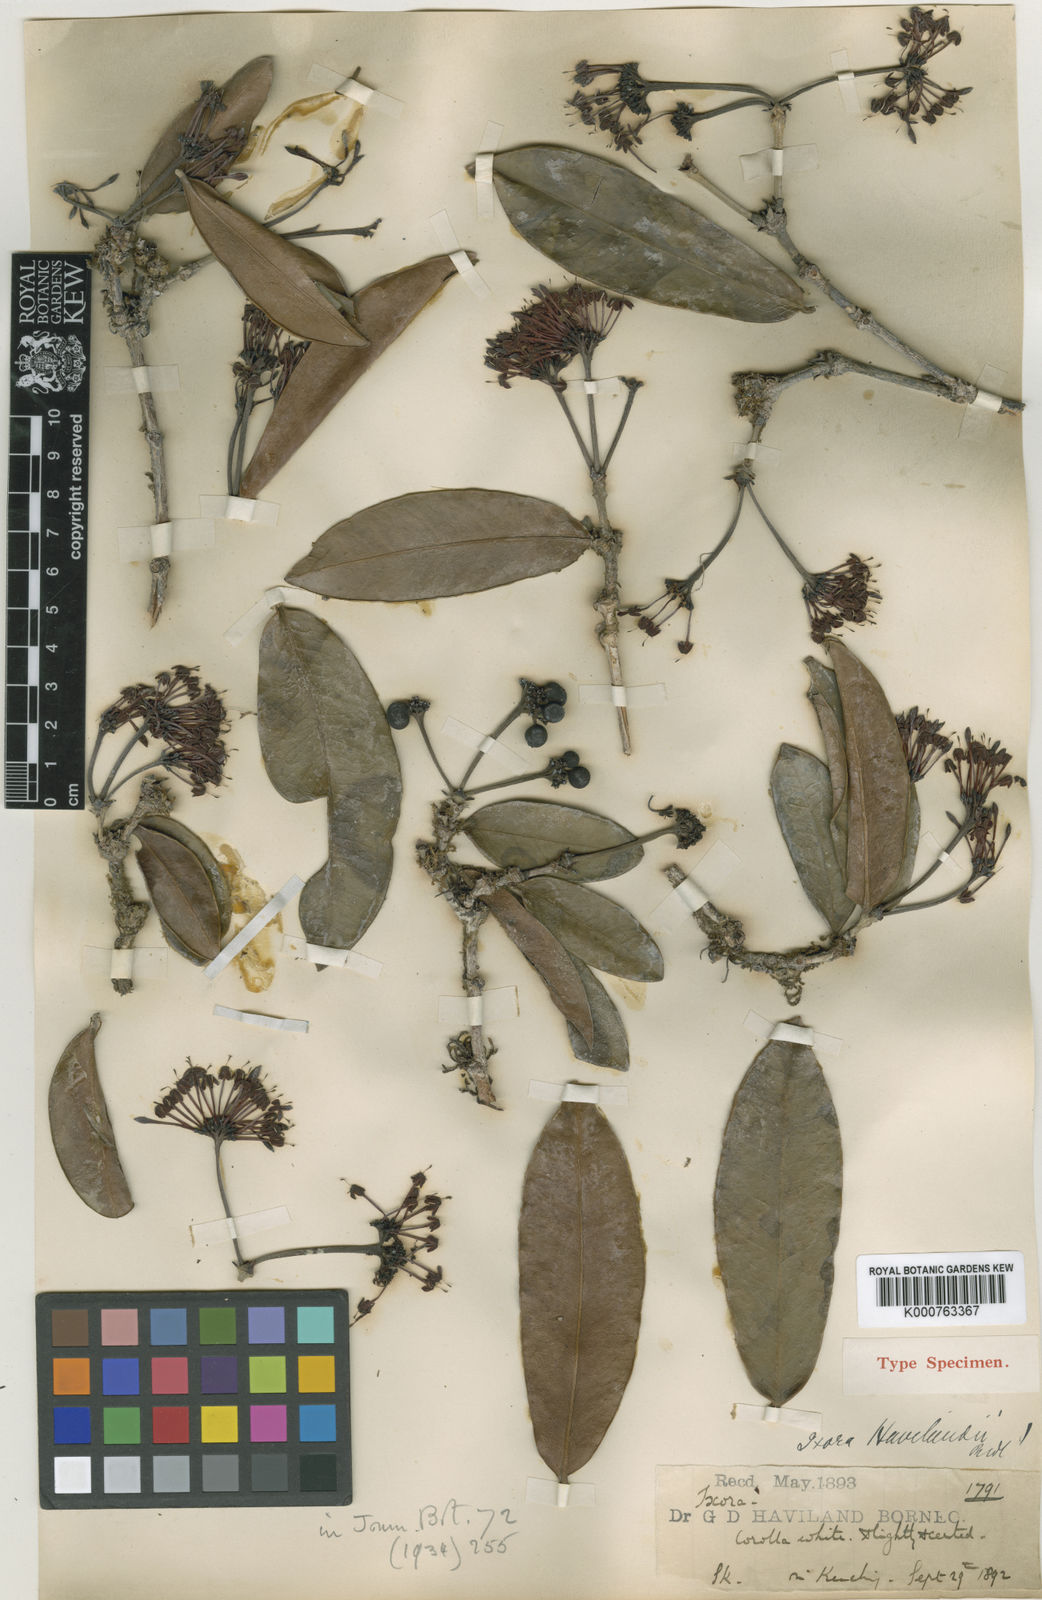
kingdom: Plantae
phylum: Tracheophyta
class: Magnoliopsida
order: Gentianales
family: Rubiaceae
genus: Ixora
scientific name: Ixora havilandii
